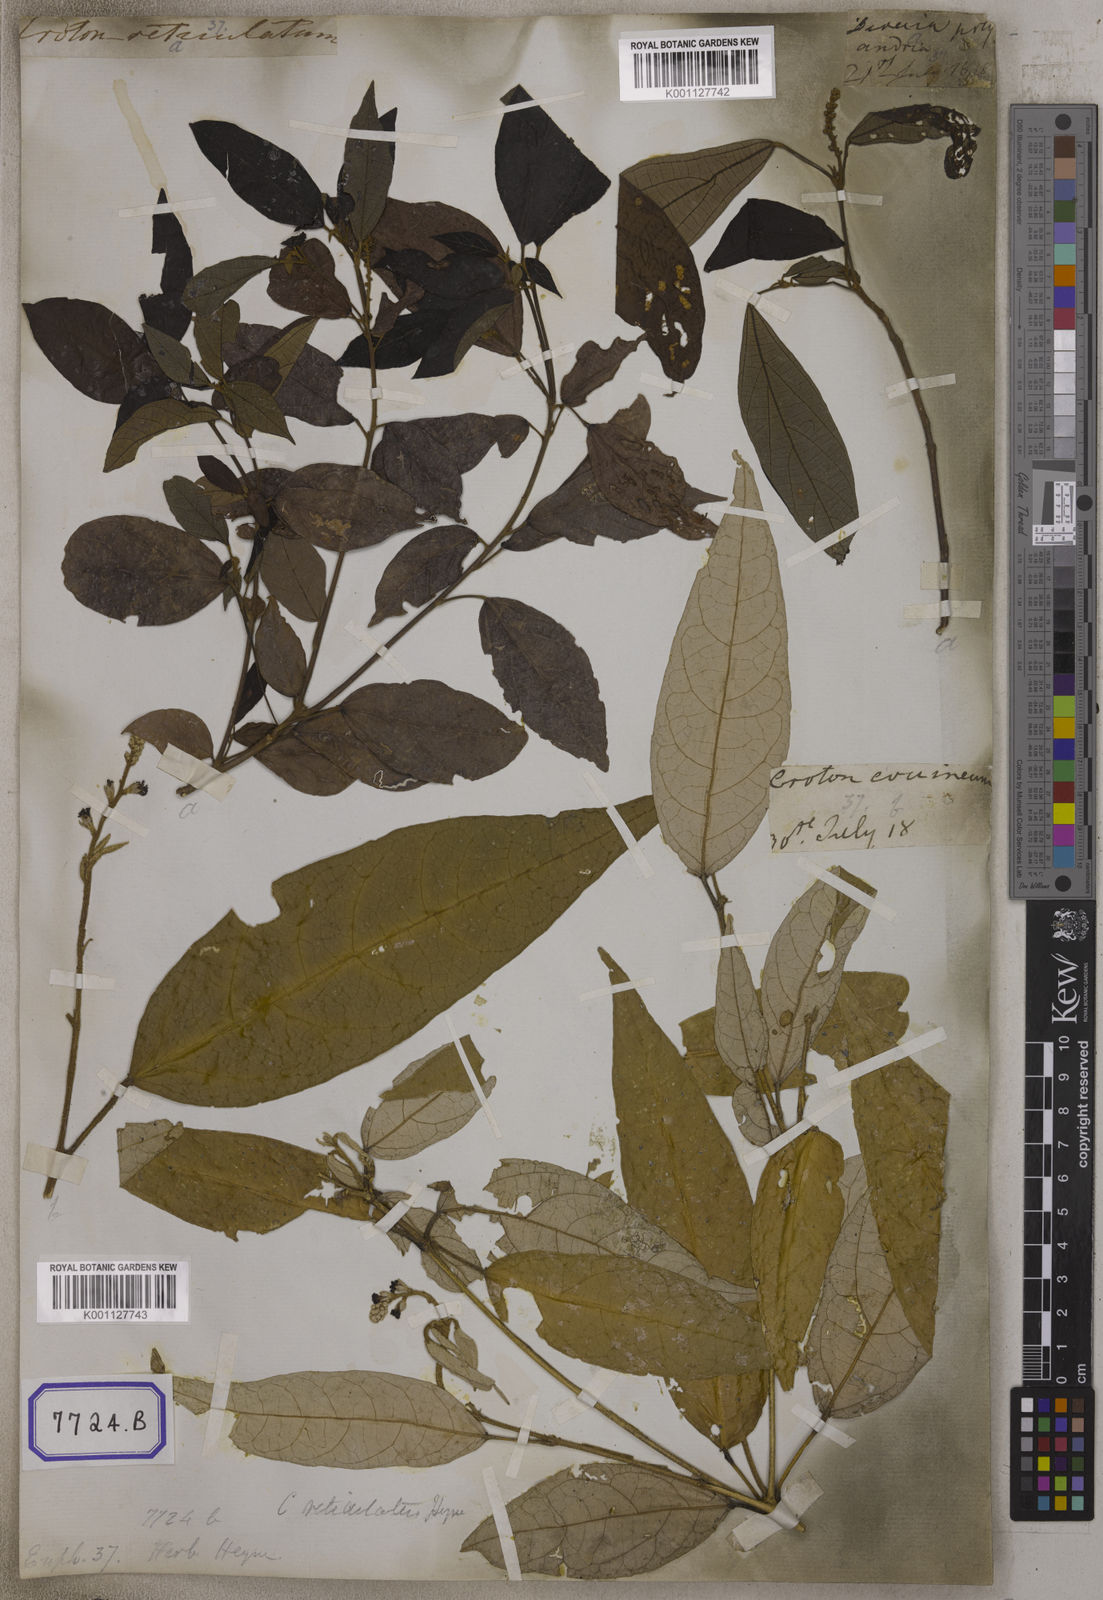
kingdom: Plantae
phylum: Tracheophyta
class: Magnoliopsida
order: Malpighiales
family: Euphorbiaceae
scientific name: Euphorbiaceae
